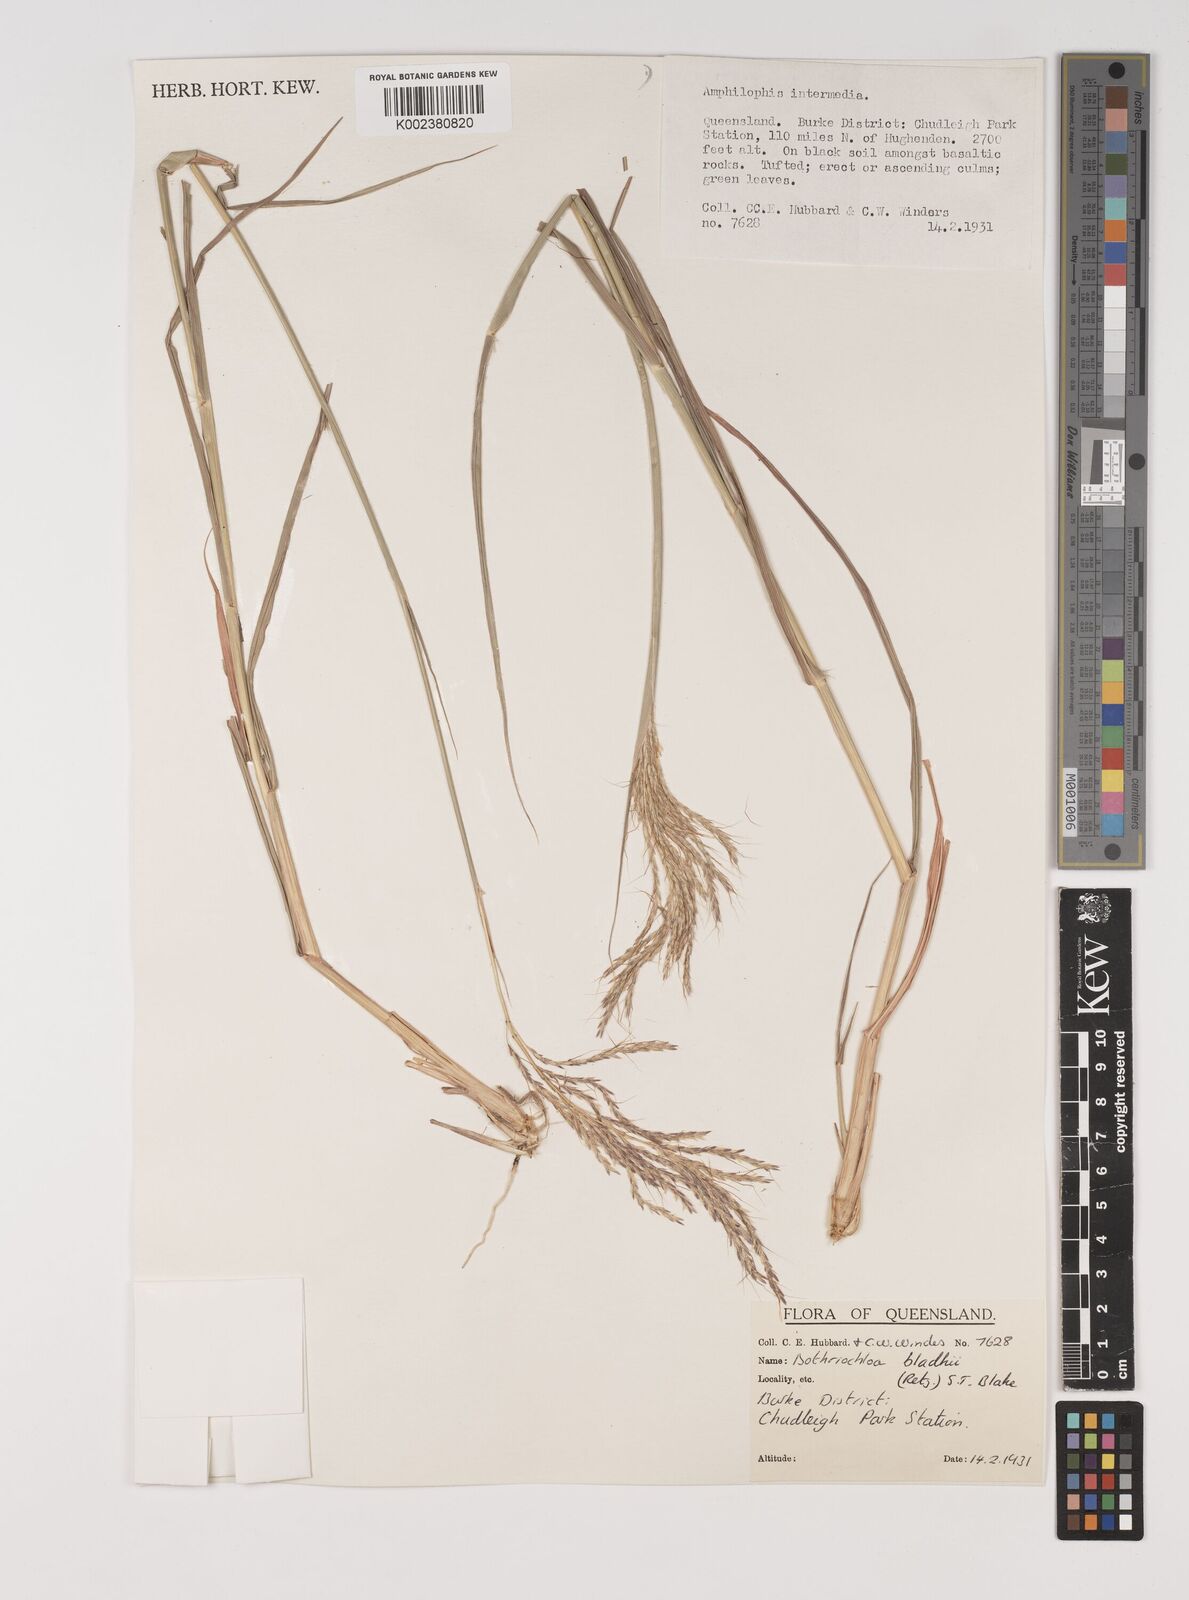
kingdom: Plantae
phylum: Tracheophyta
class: Liliopsida
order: Poales
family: Poaceae
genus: Bothriochloa
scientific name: Bothriochloa bladhii
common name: Caucasian bluestem
